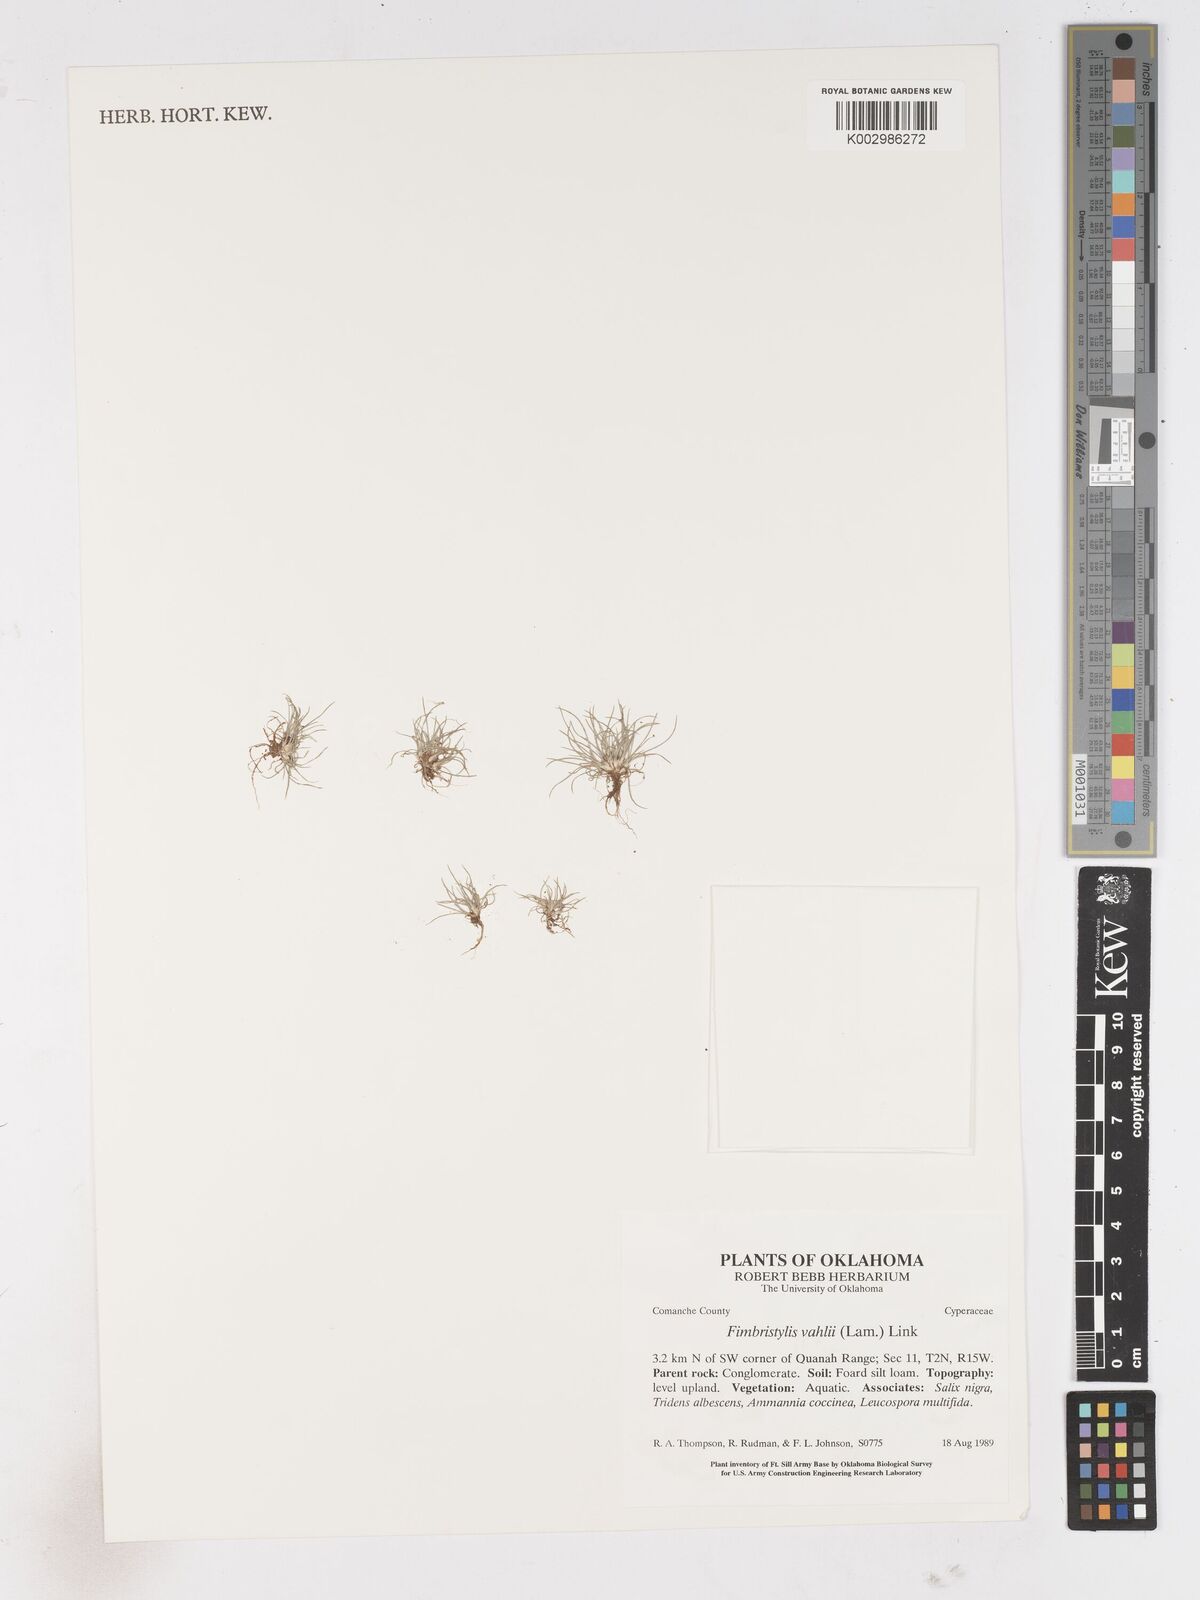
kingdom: Plantae
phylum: Tracheophyta
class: Liliopsida
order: Poales
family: Cyperaceae
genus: Fimbristylis
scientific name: Fimbristylis vahlii
